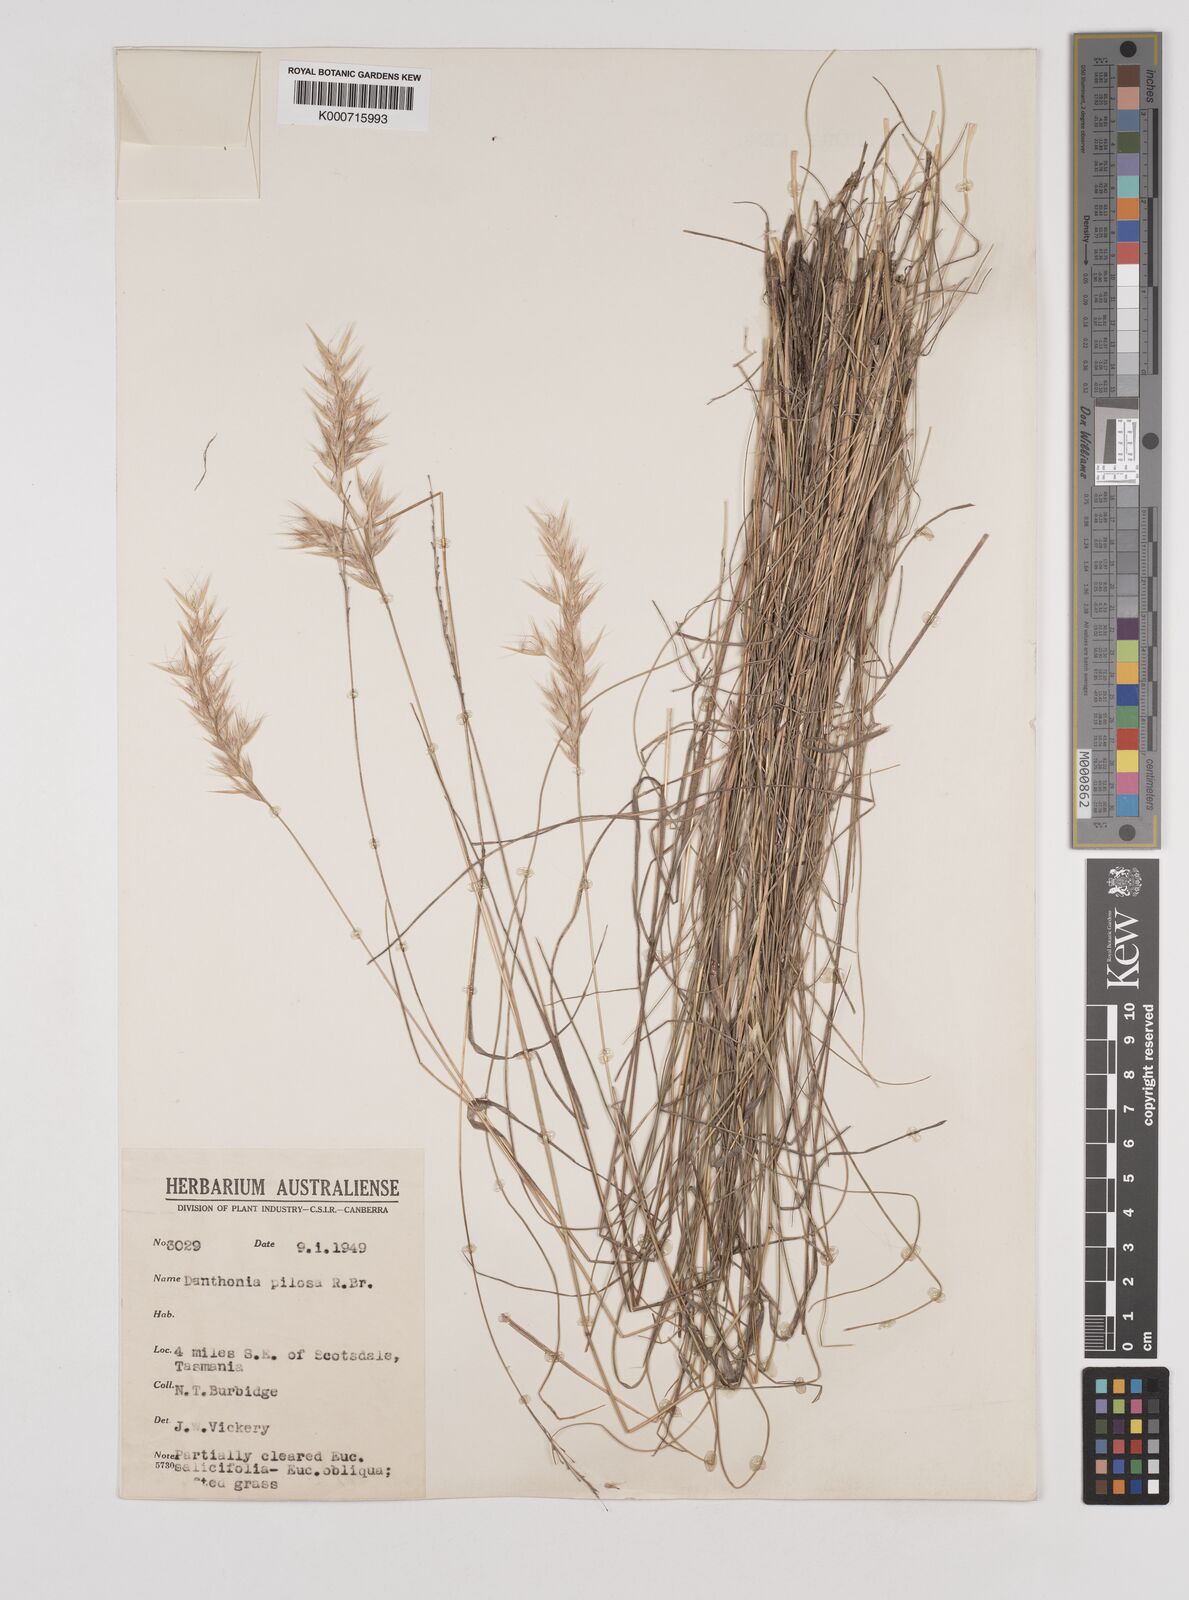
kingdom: Plantae
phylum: Tracheophyta
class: Liliopsida
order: Poales
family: Poaceae
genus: Rytidosperma
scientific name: Rytidosperma pilosum
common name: Hairy wallaby grass
